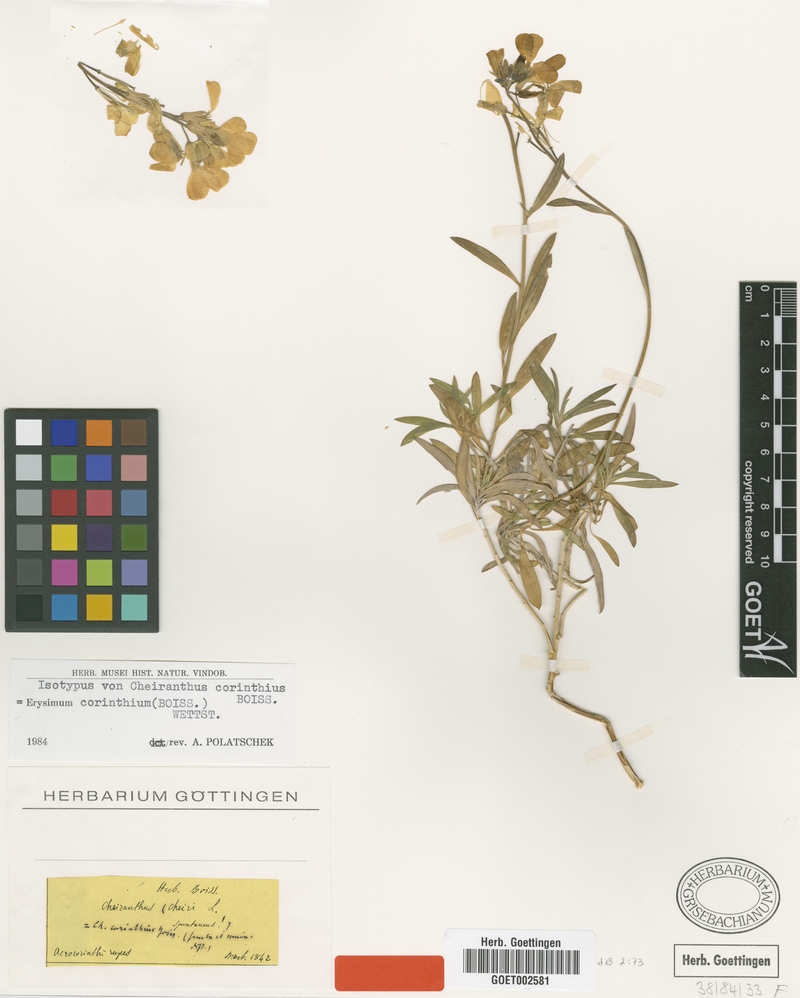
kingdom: Plantae
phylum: Tracheophyta
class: Magnoliopsida
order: Brassicales
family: Brassicaceae
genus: Erysimum
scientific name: Erysimum corinthium
